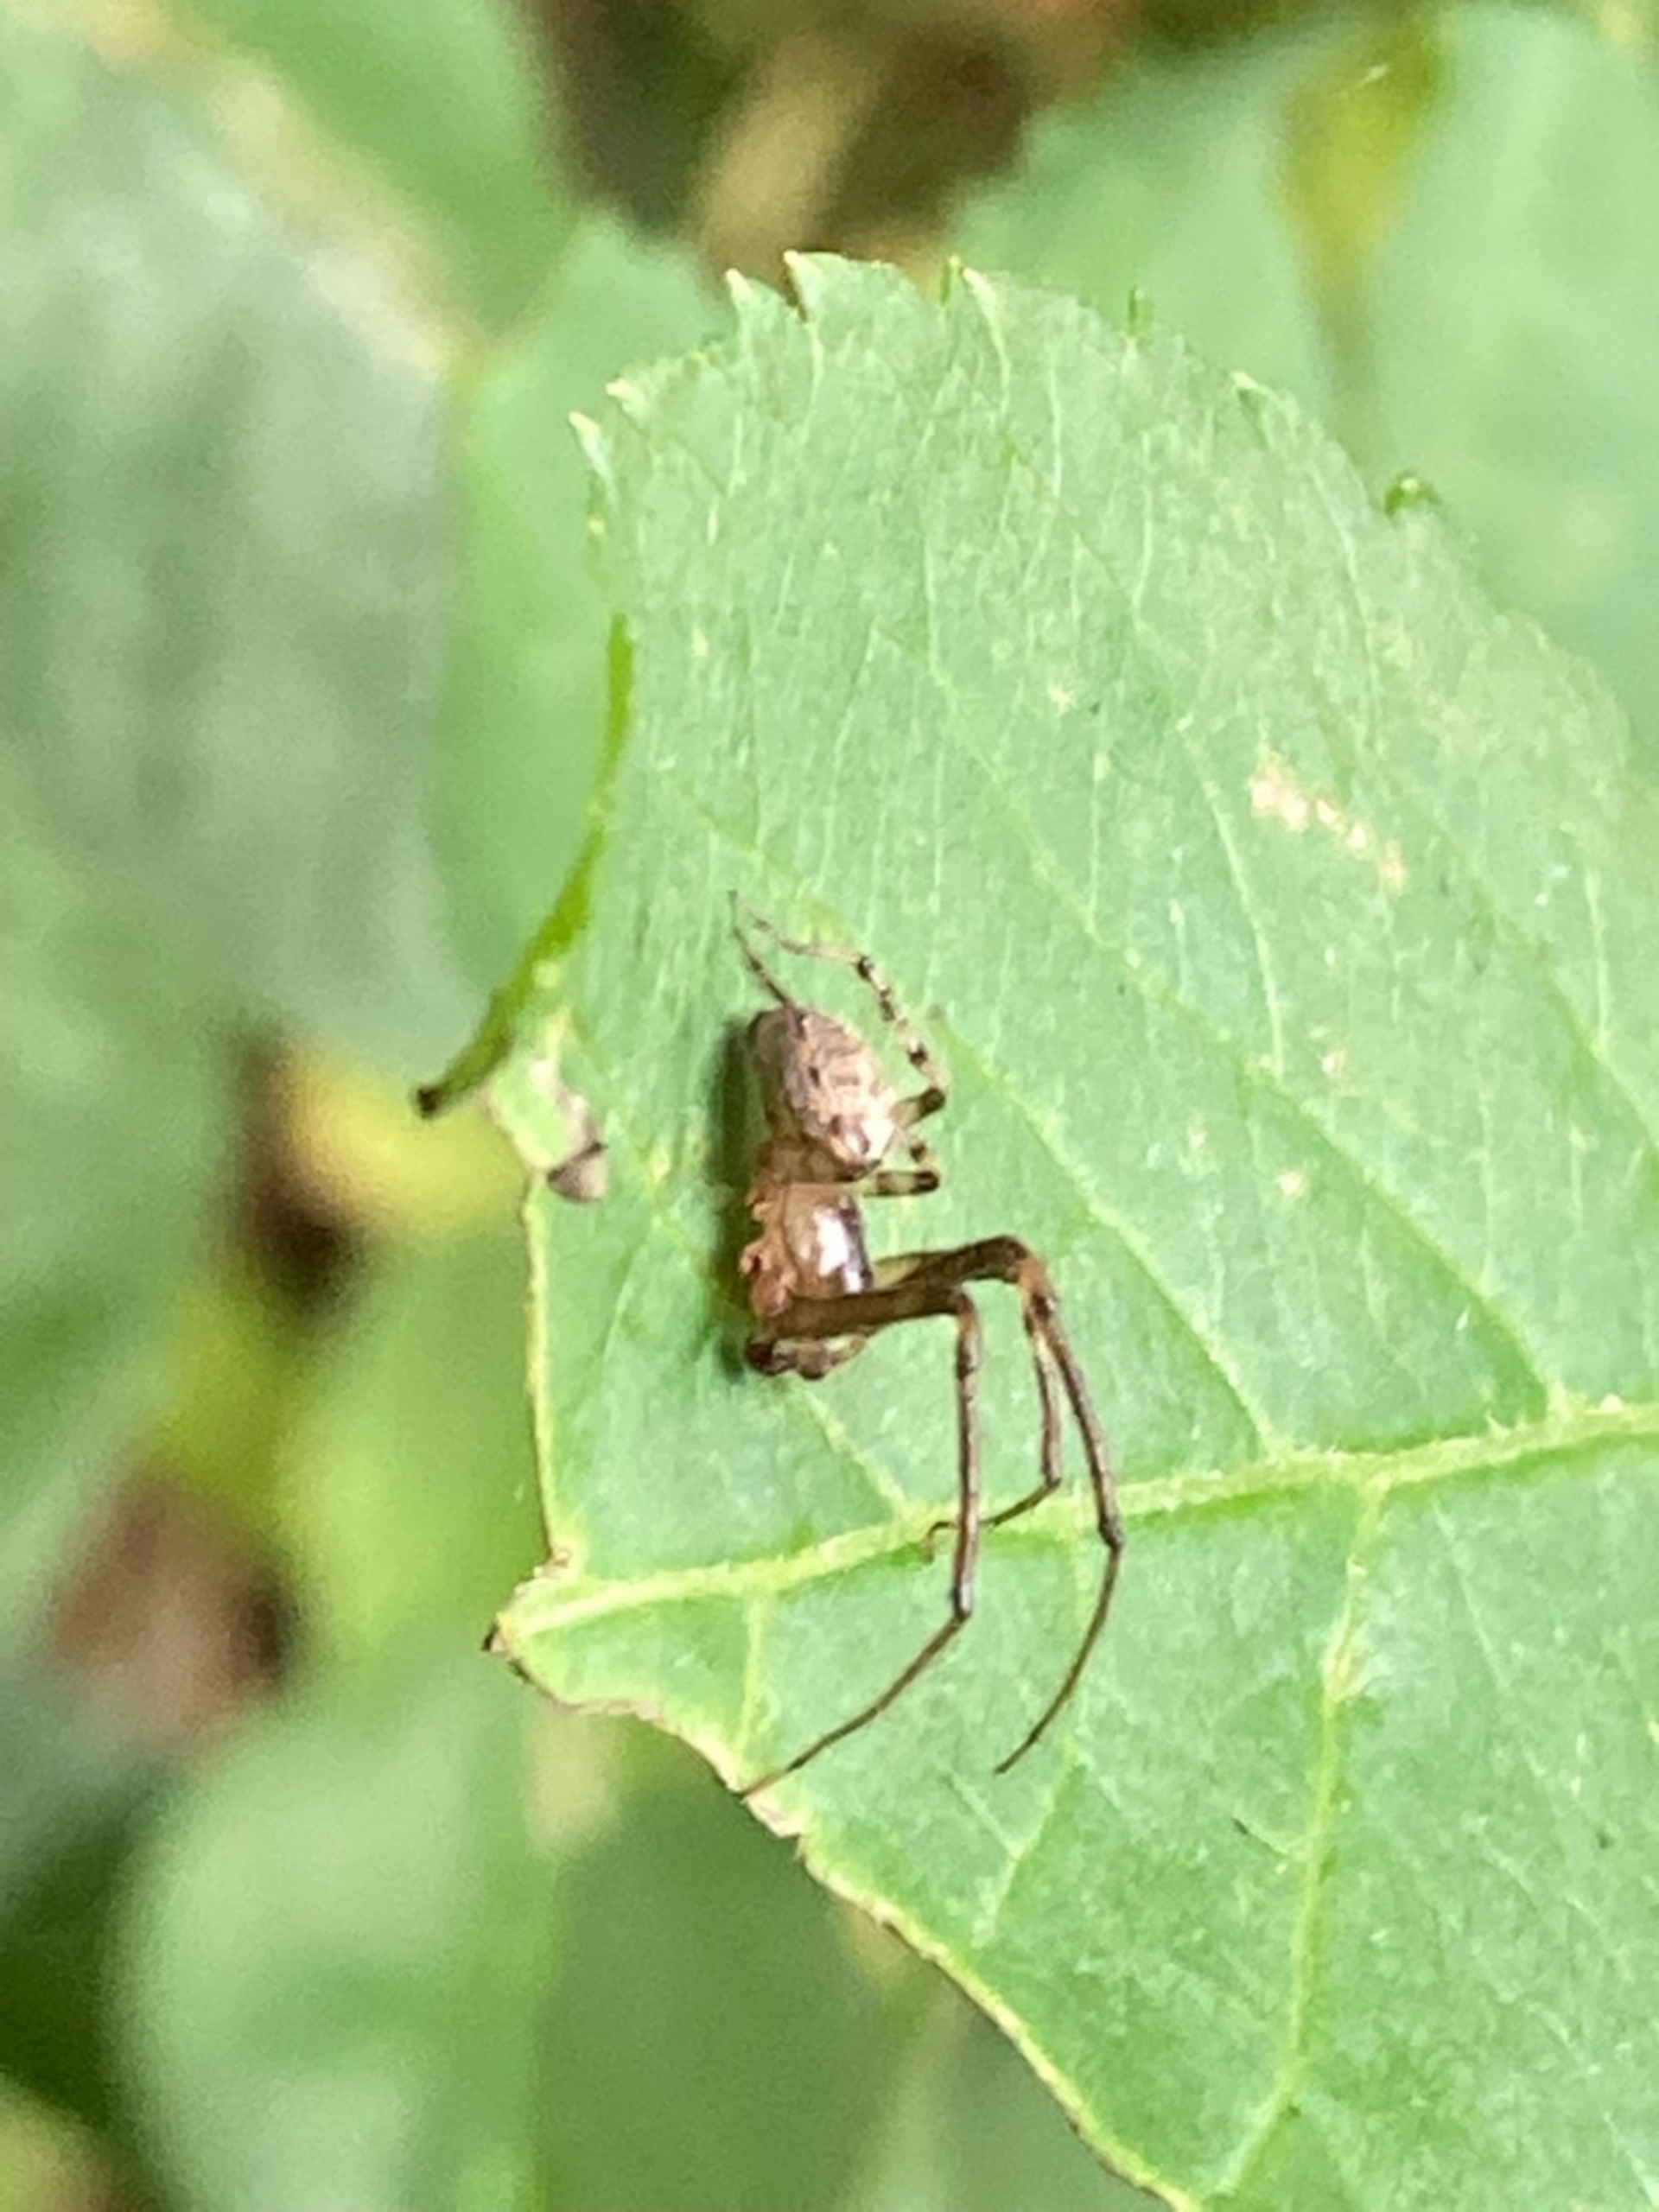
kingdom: Animalia
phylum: Arthropoda
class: Arachnida
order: Araneae
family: Araneidae
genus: Zygiella
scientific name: Zygiella
